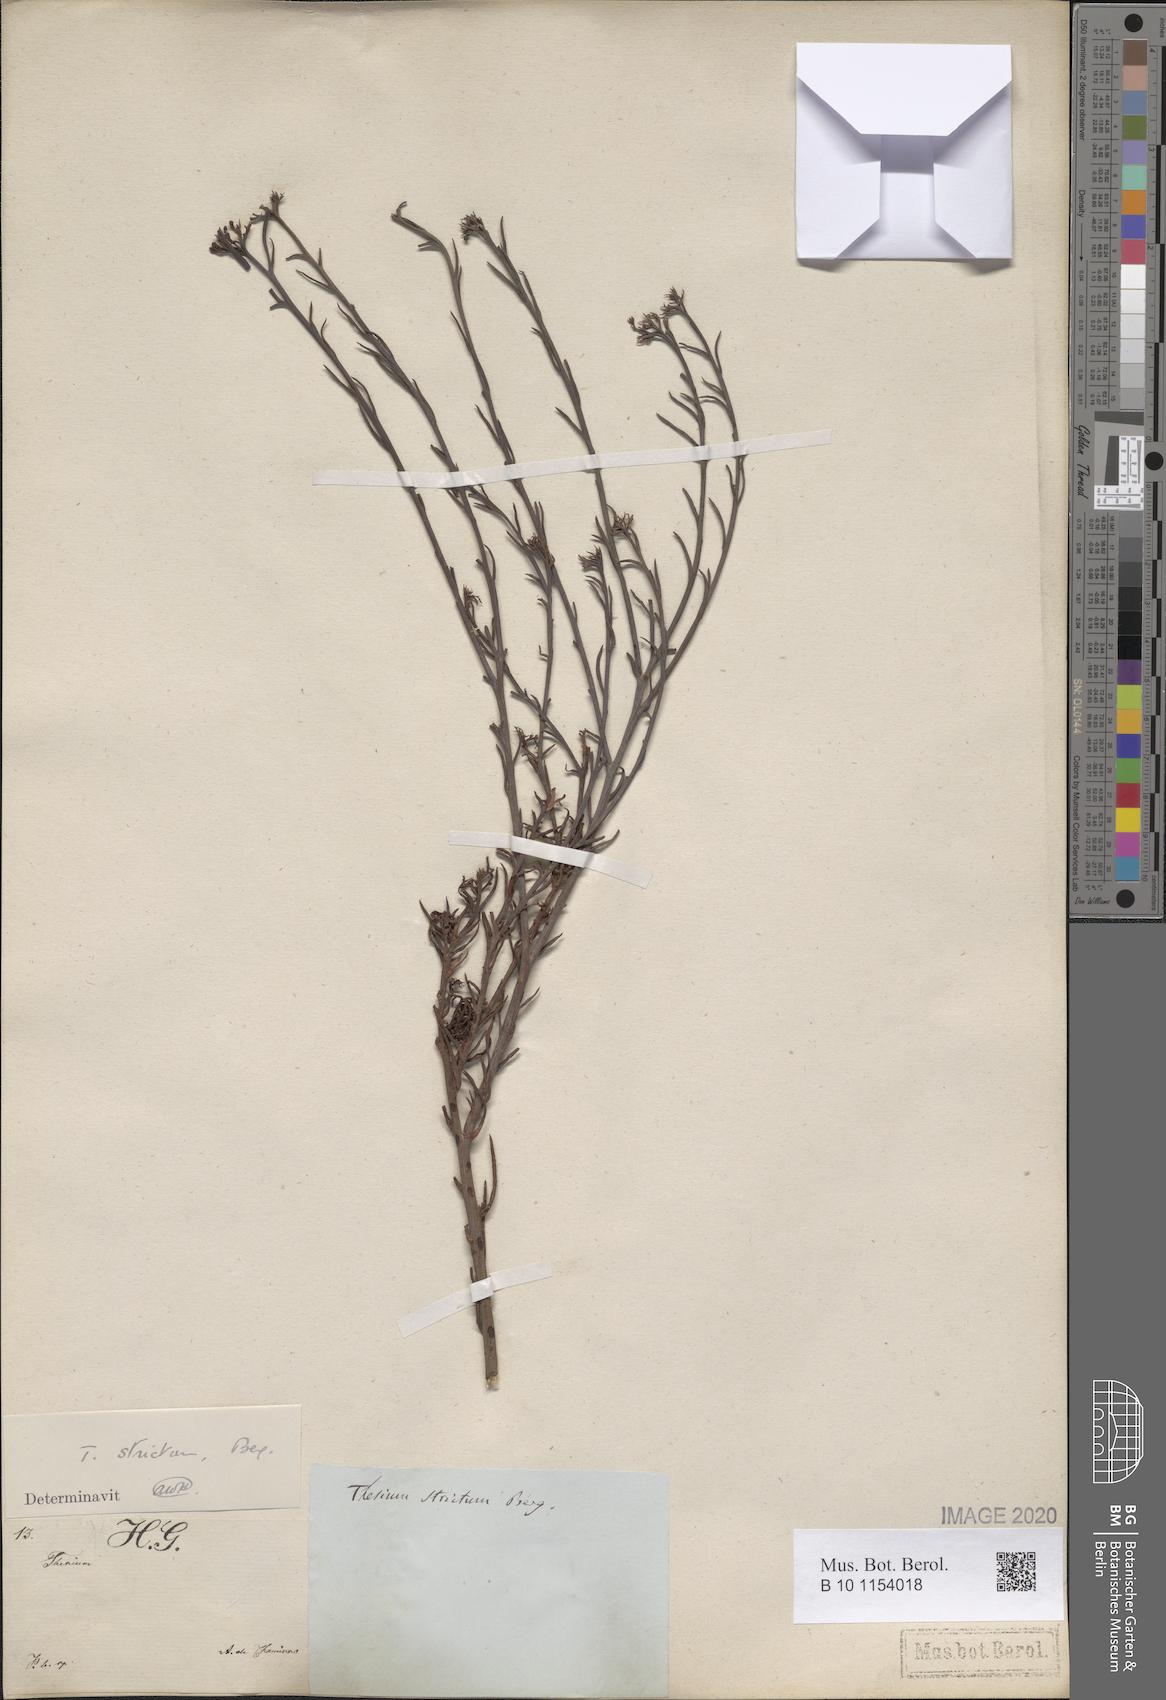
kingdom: Plantae
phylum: Tracheophyta
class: Magnoliopsida
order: Santalales
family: Thesiaceae
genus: Thesium
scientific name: Thesium strictum
